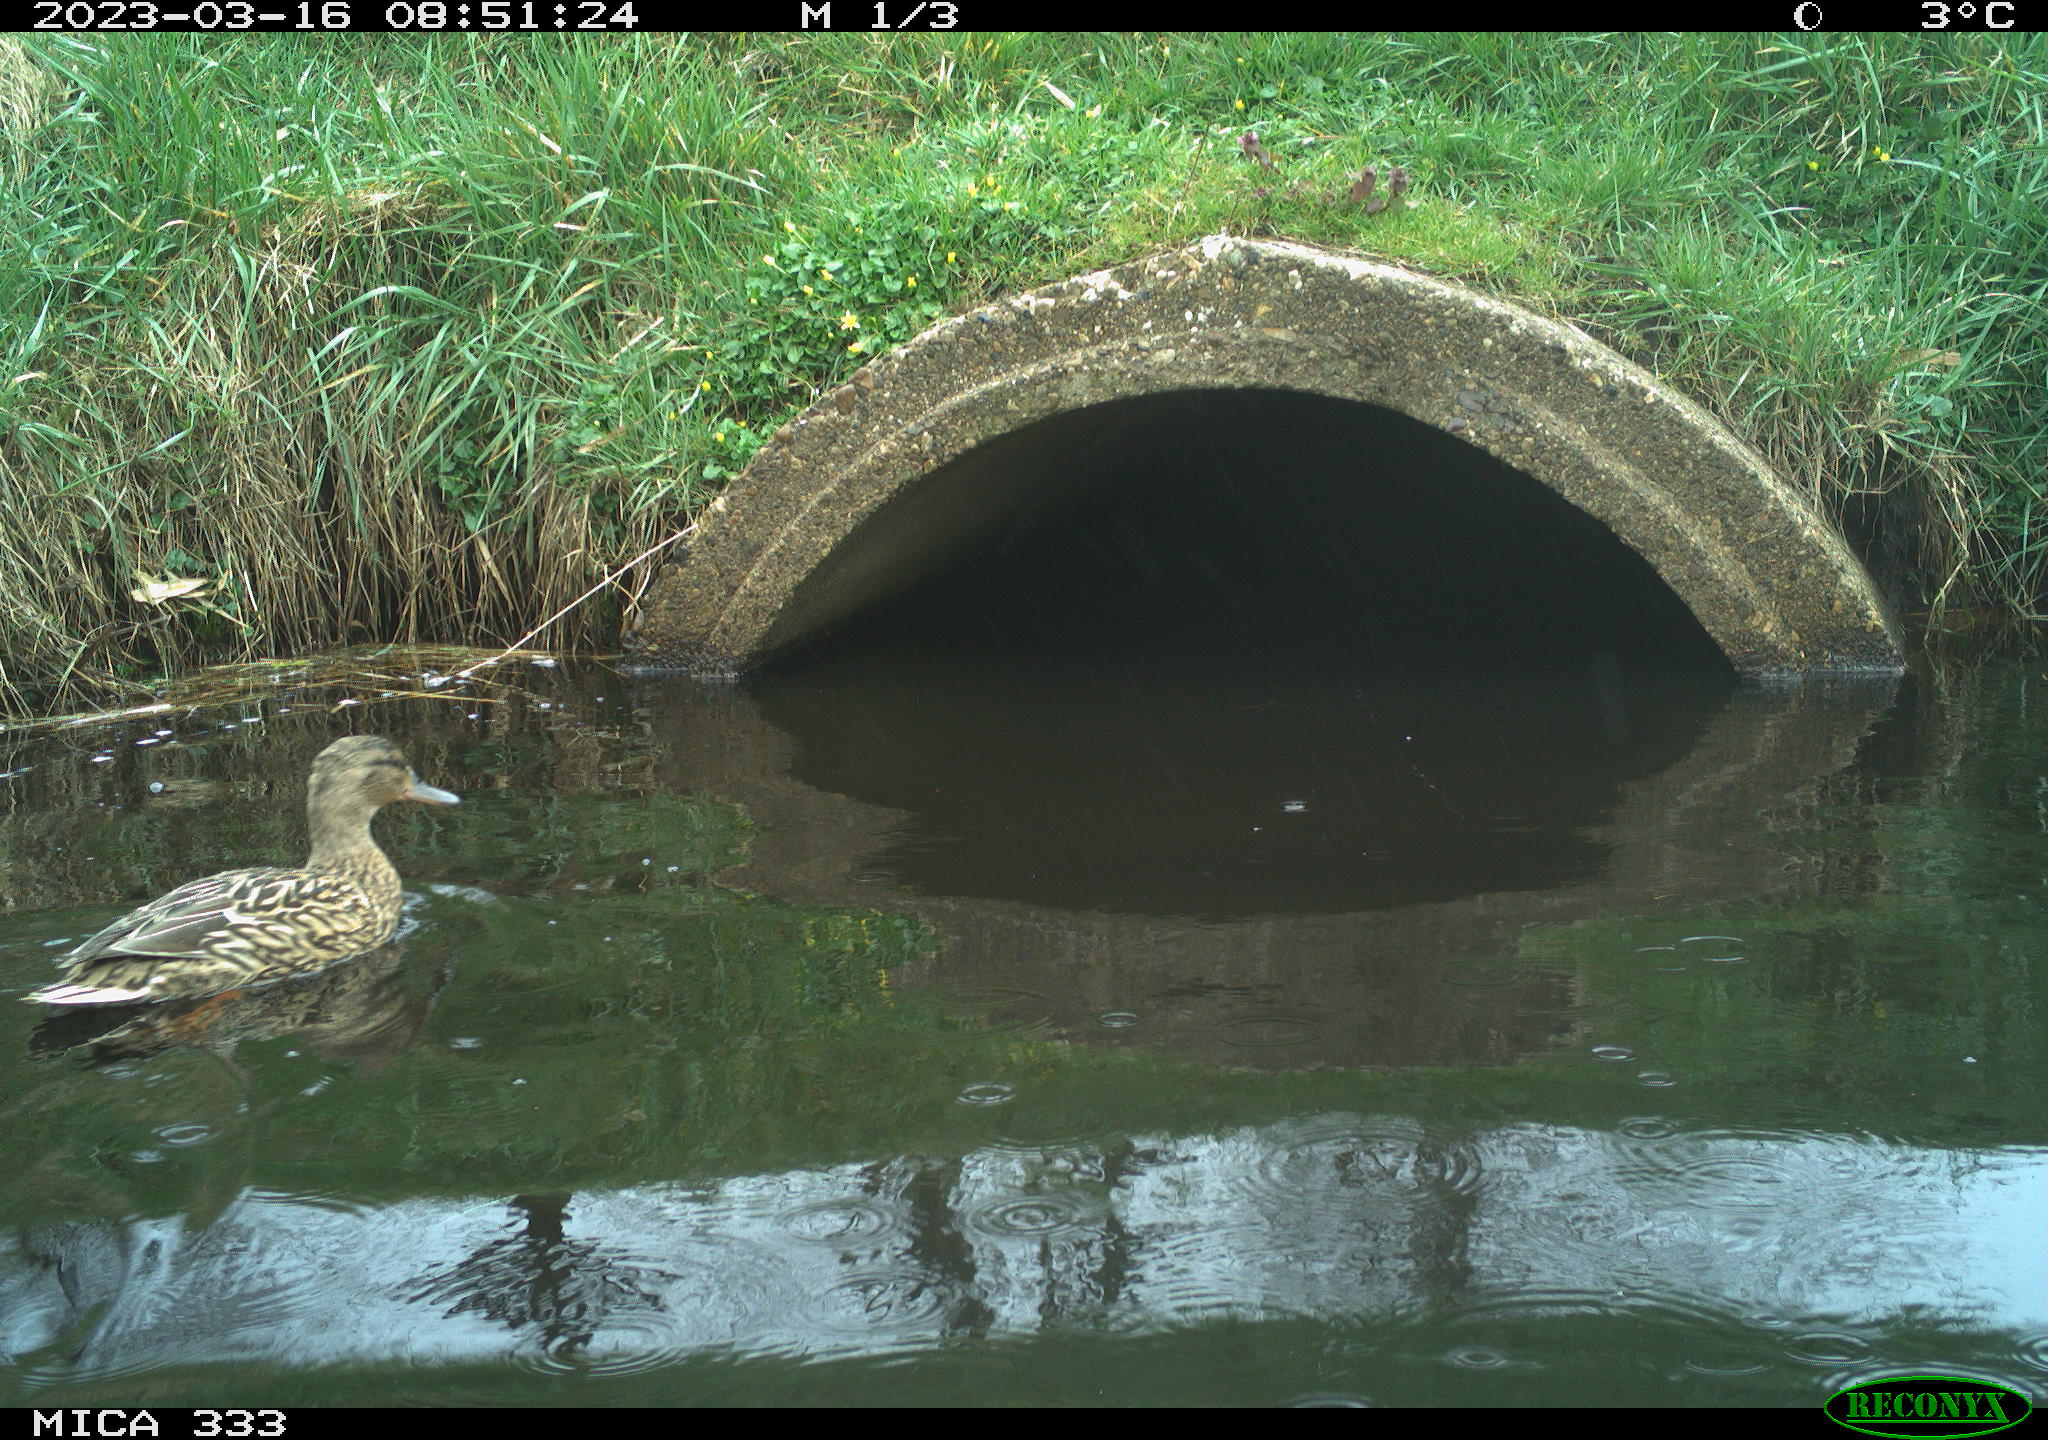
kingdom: Animalia
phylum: Chordata
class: Aves
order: Anseriformes
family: Anatidae
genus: Anas
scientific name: Anas
